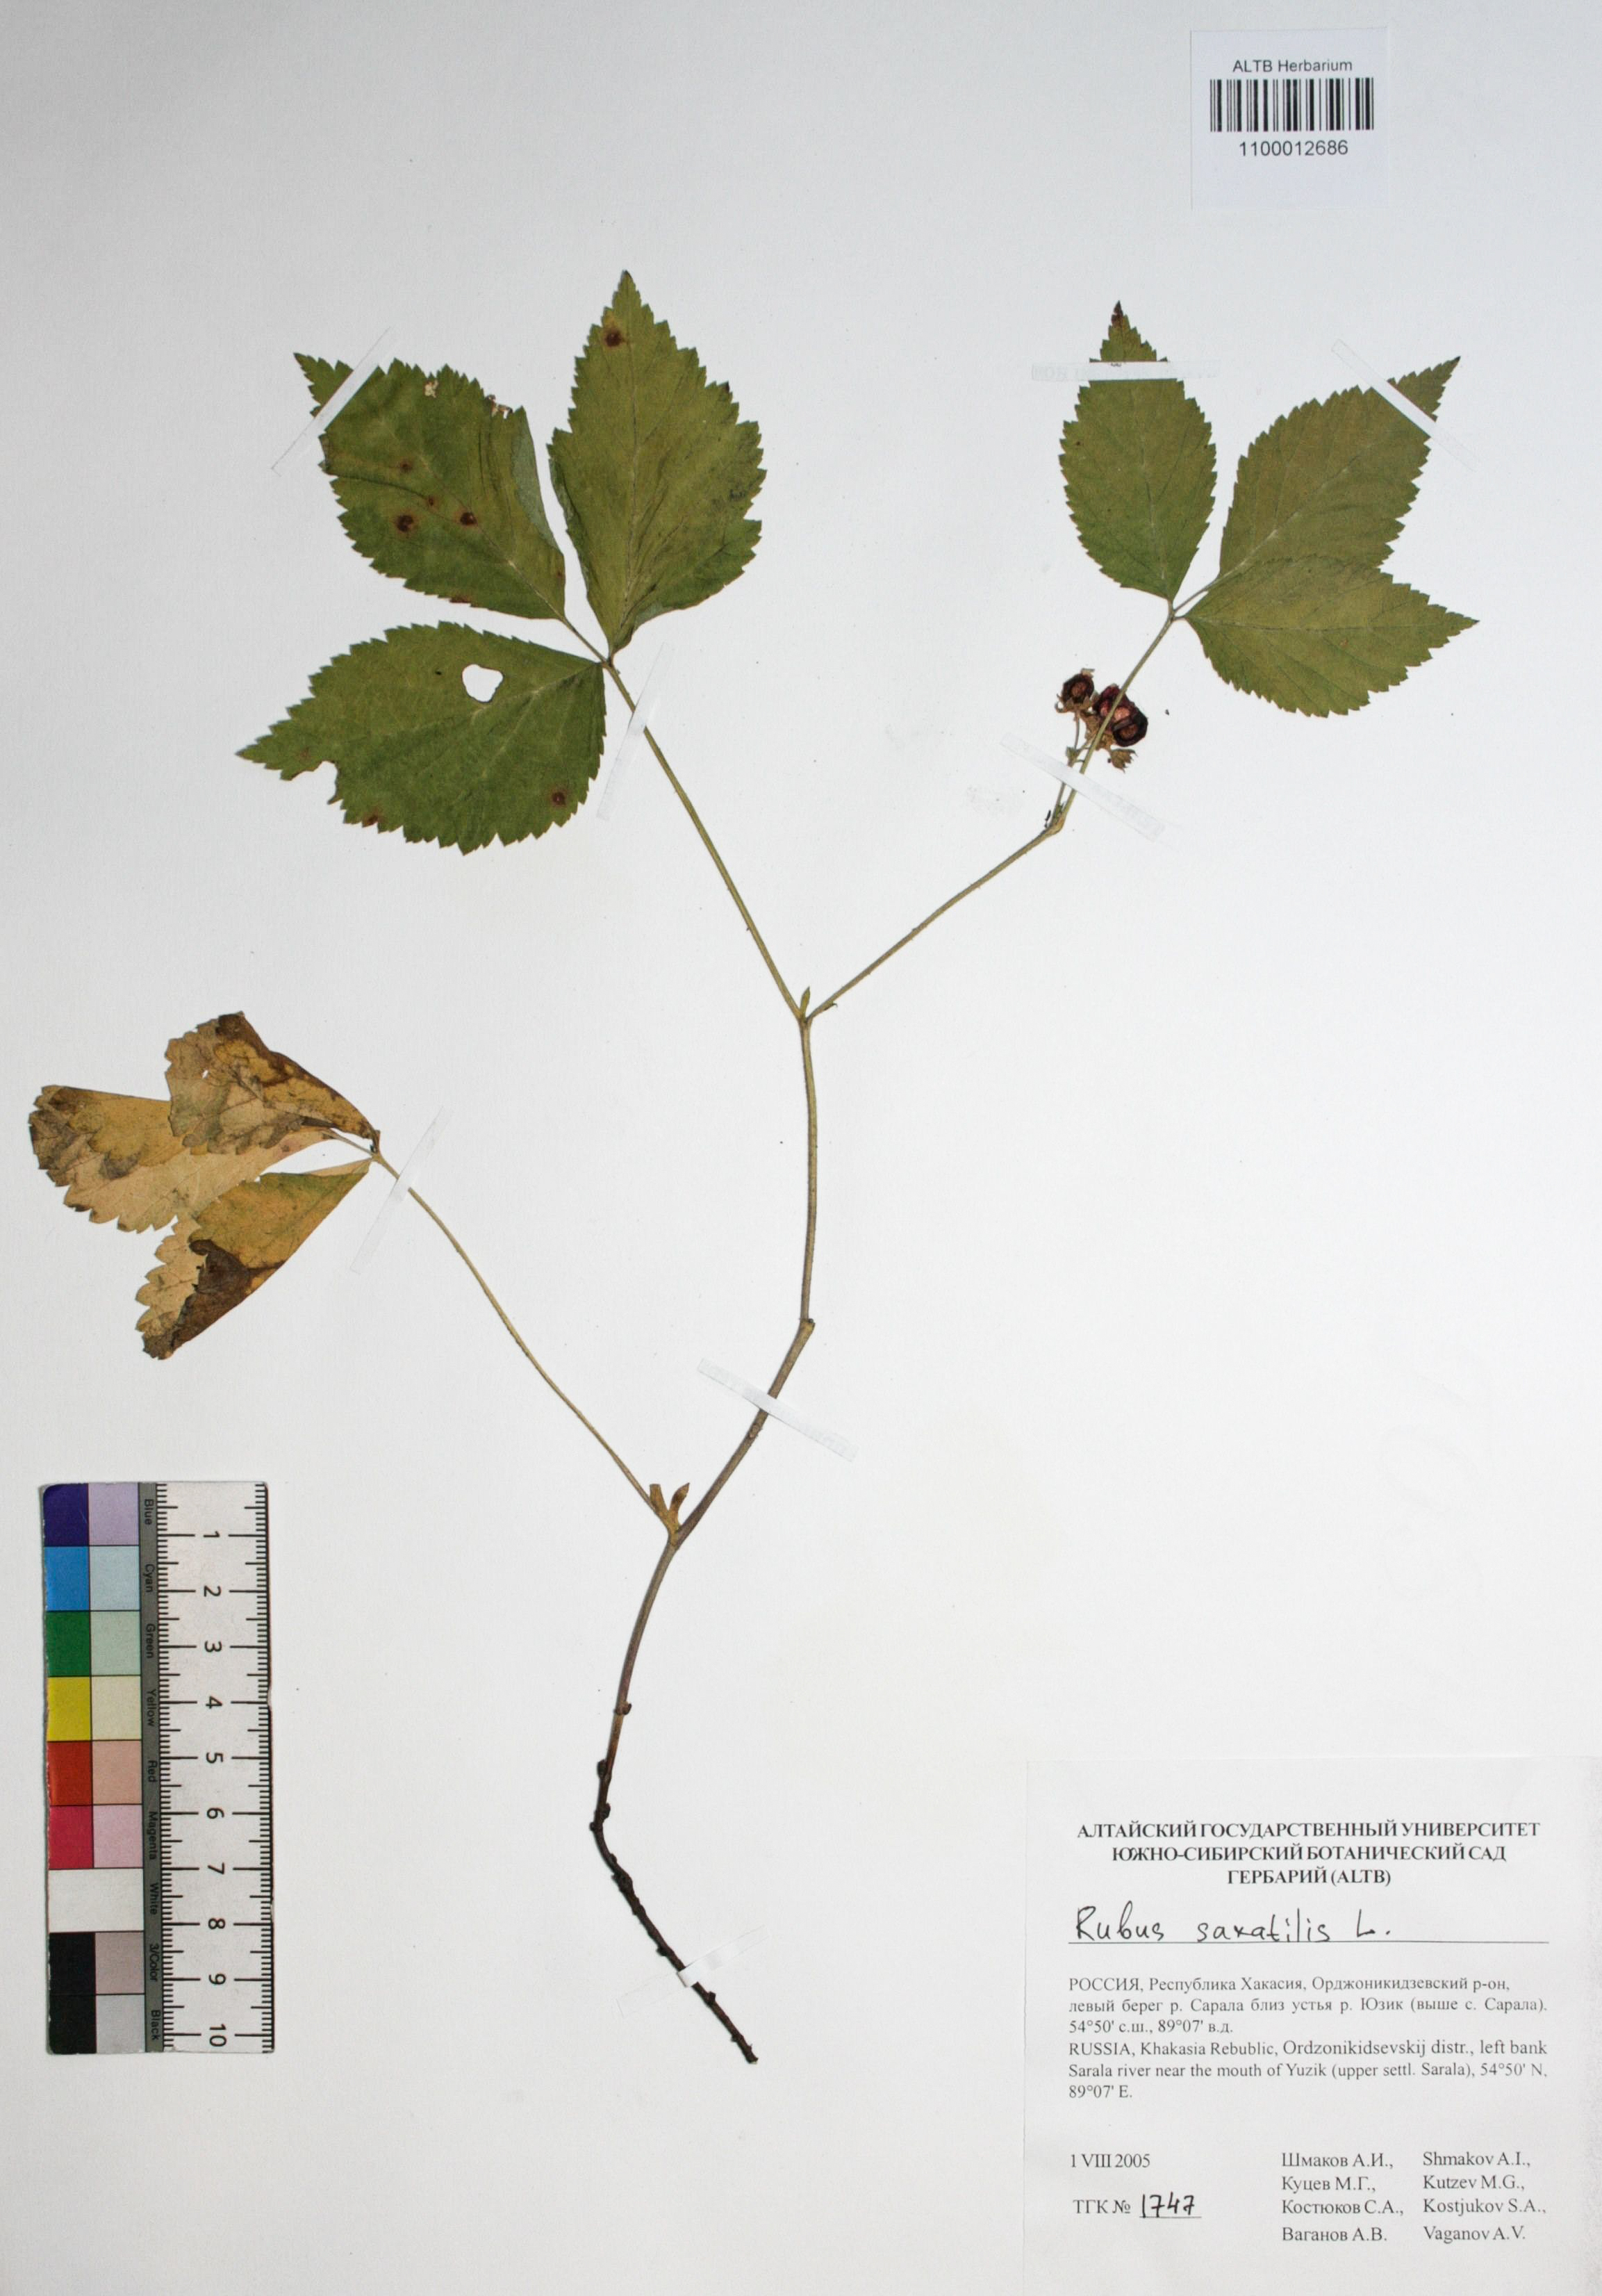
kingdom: Plantae
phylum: Tracheophyta
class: Magnoliopsida
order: Rosales
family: Rosaceae
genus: Rubus
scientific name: Rubus saxatilis
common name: Stone bramble
